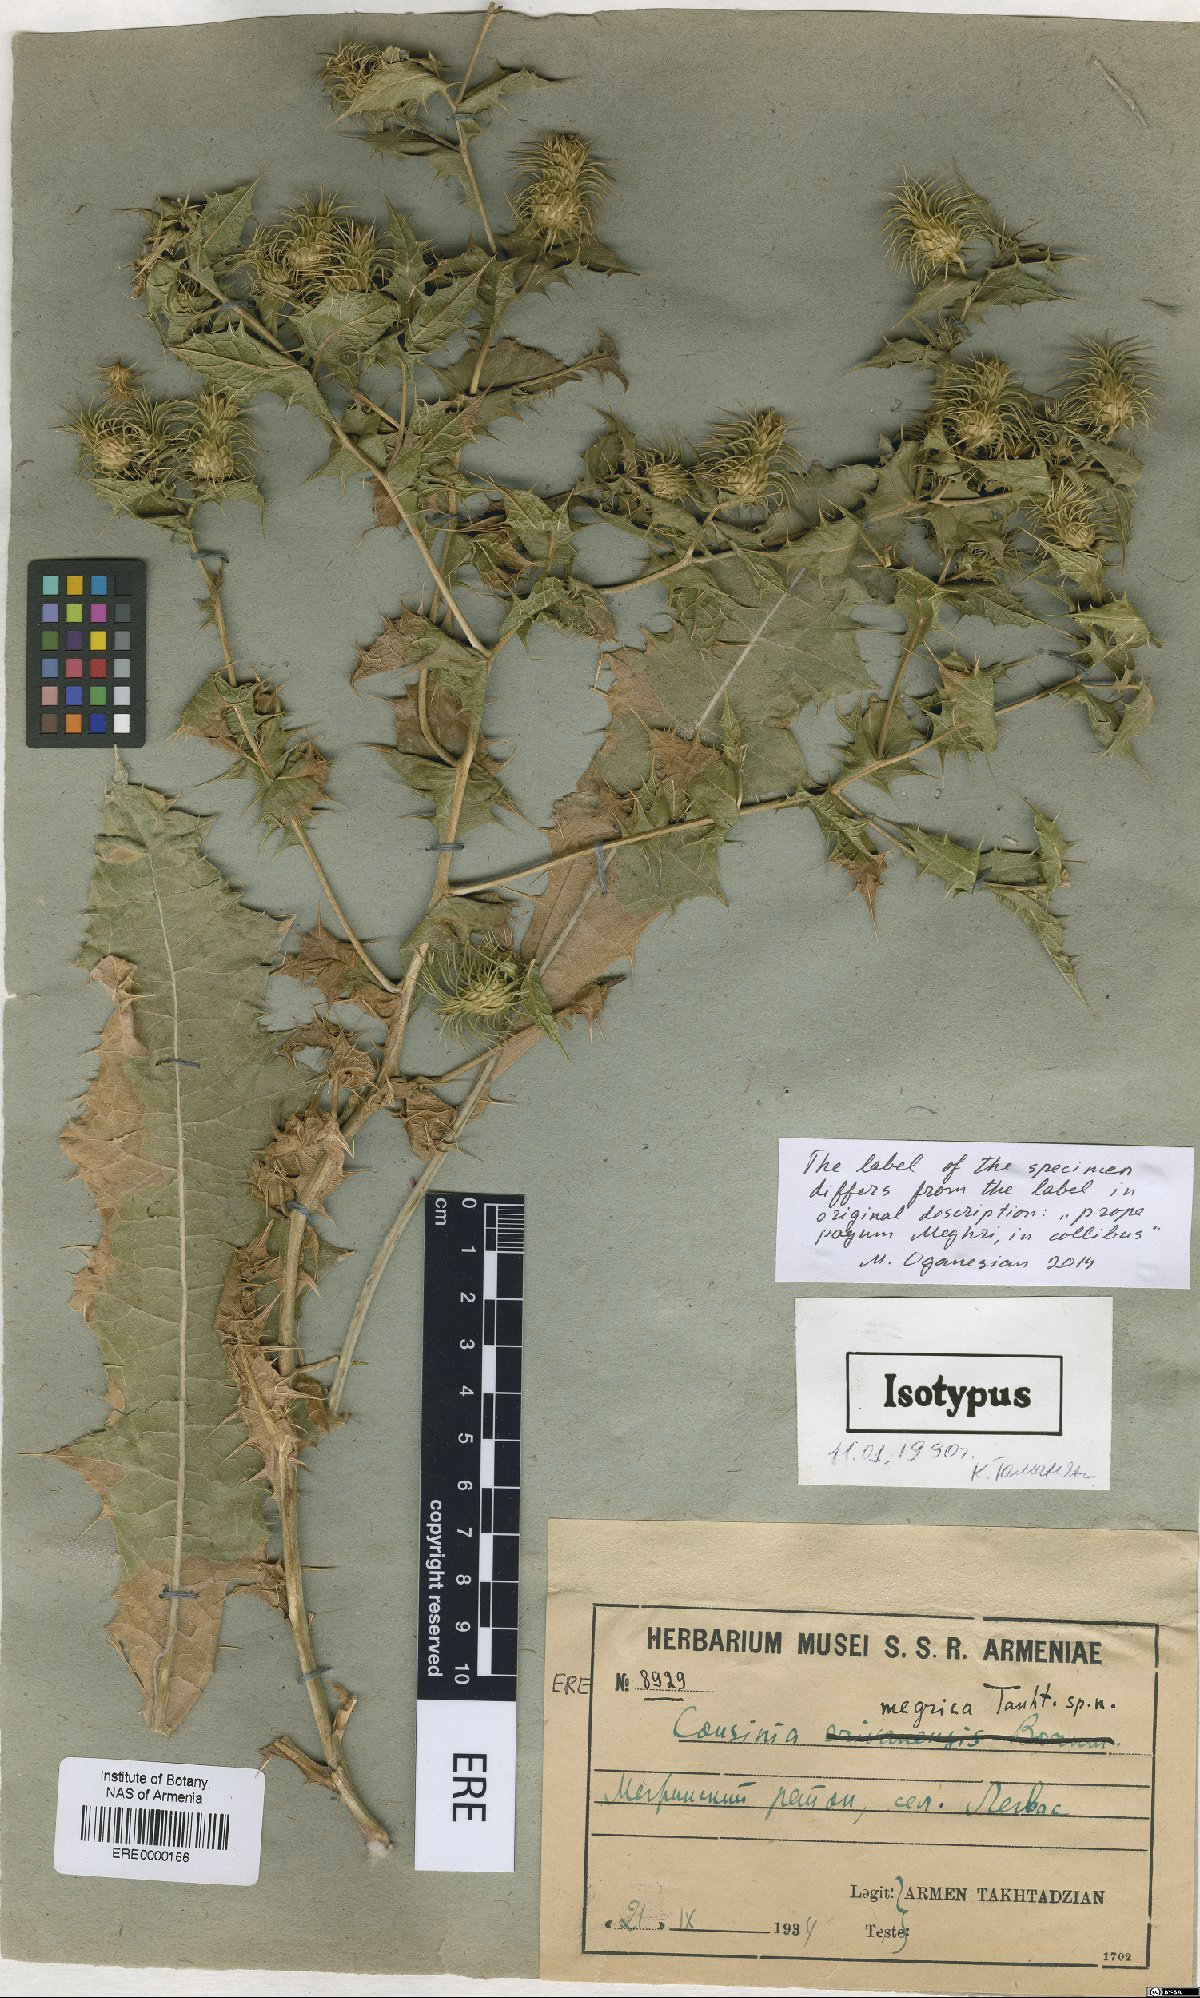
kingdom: Plantae
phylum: Tracheophyta
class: Magnoliopsida
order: Asterales
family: Asteraceae
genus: Cousinia
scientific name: Cousinia meghrica
